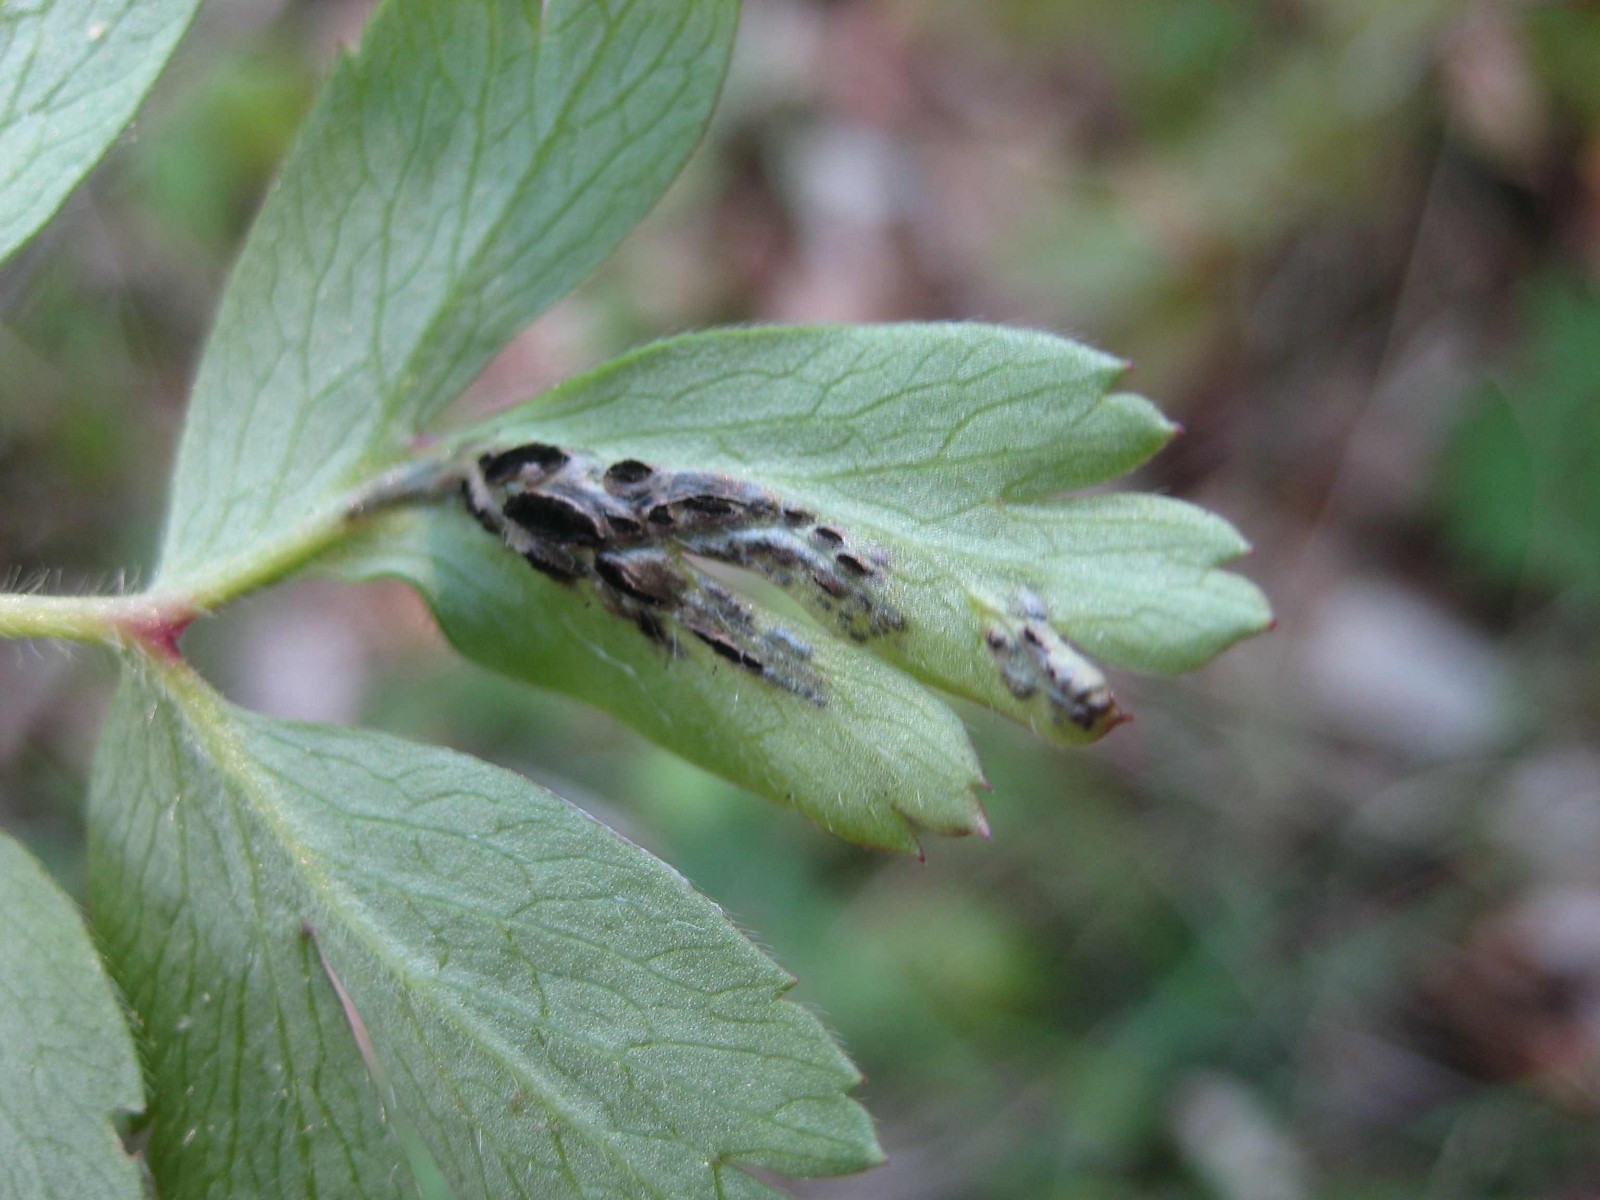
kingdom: Fungi
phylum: Basidiomycota
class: Ustilaginomycetes
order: Urocystidales
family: Urocystidaceae
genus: Urocystis
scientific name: Urocystis anemones
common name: anemone-brand
